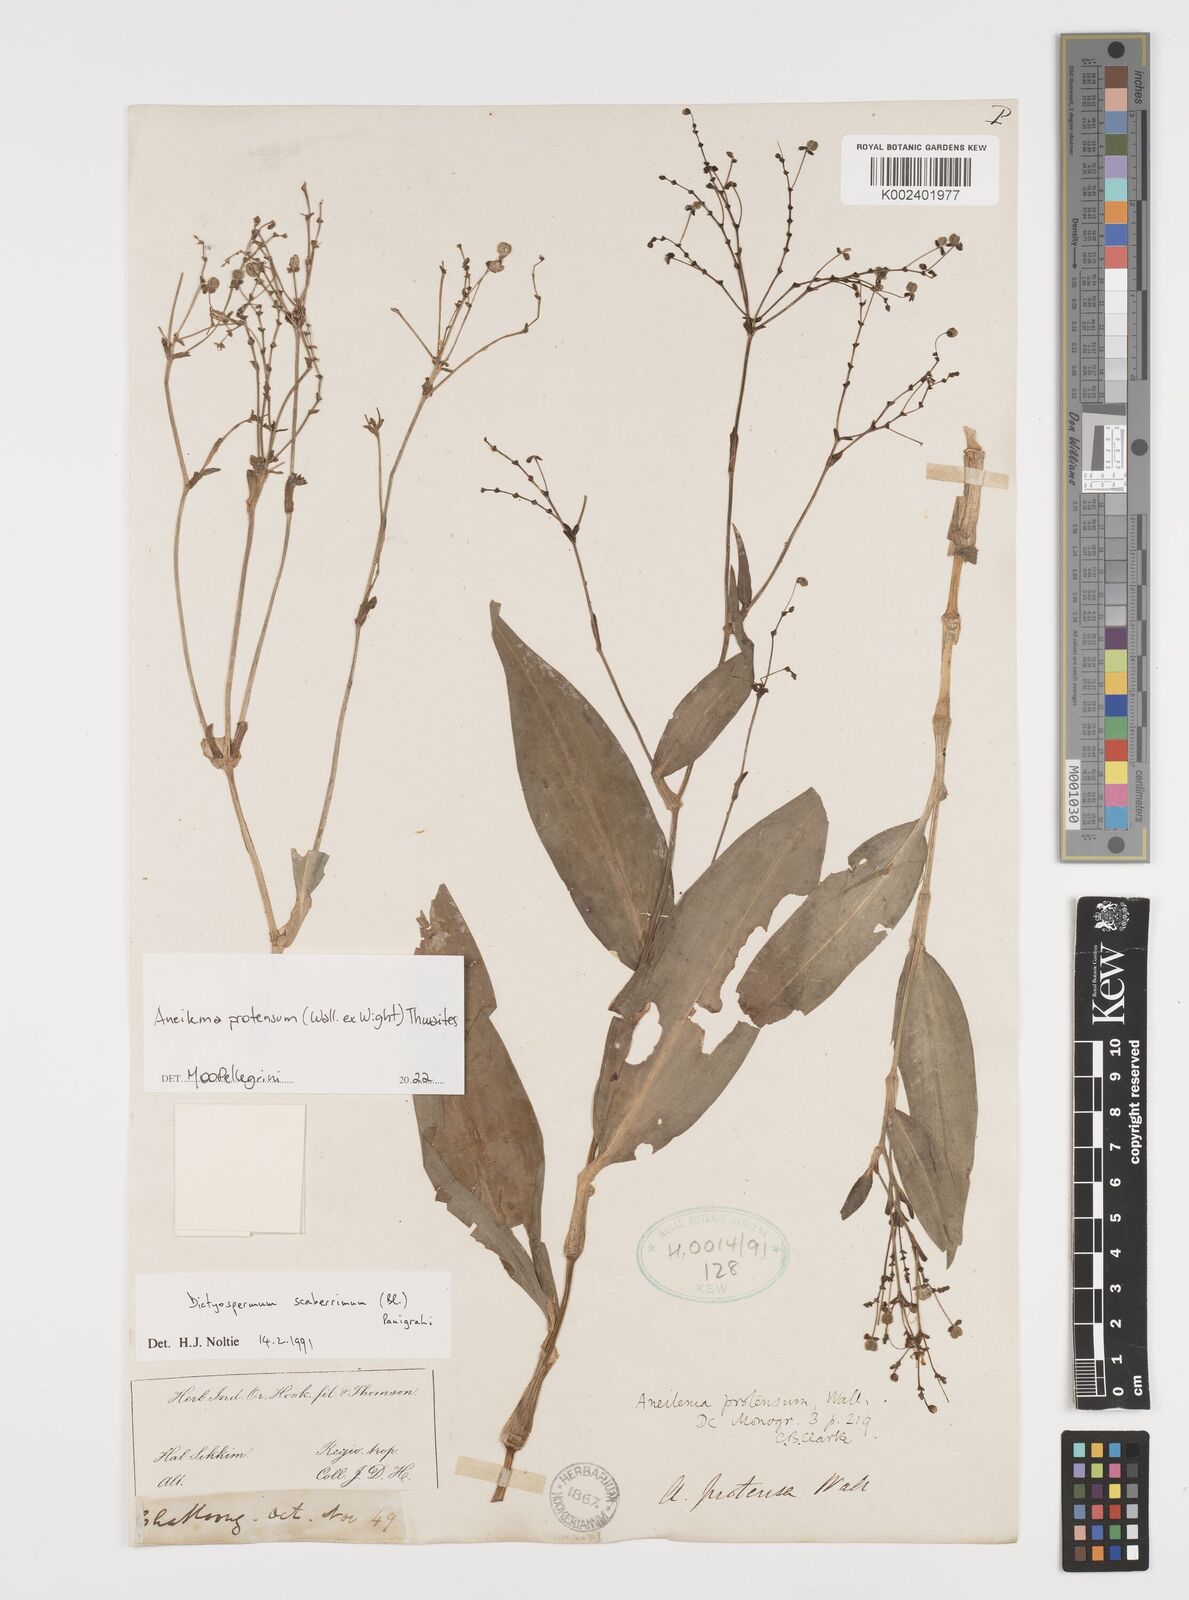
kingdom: Plantae
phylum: Tracheophyta
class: Liliopsida
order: Commelinales
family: Commelinaceae
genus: Rhopalephora
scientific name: Rhopalephora
